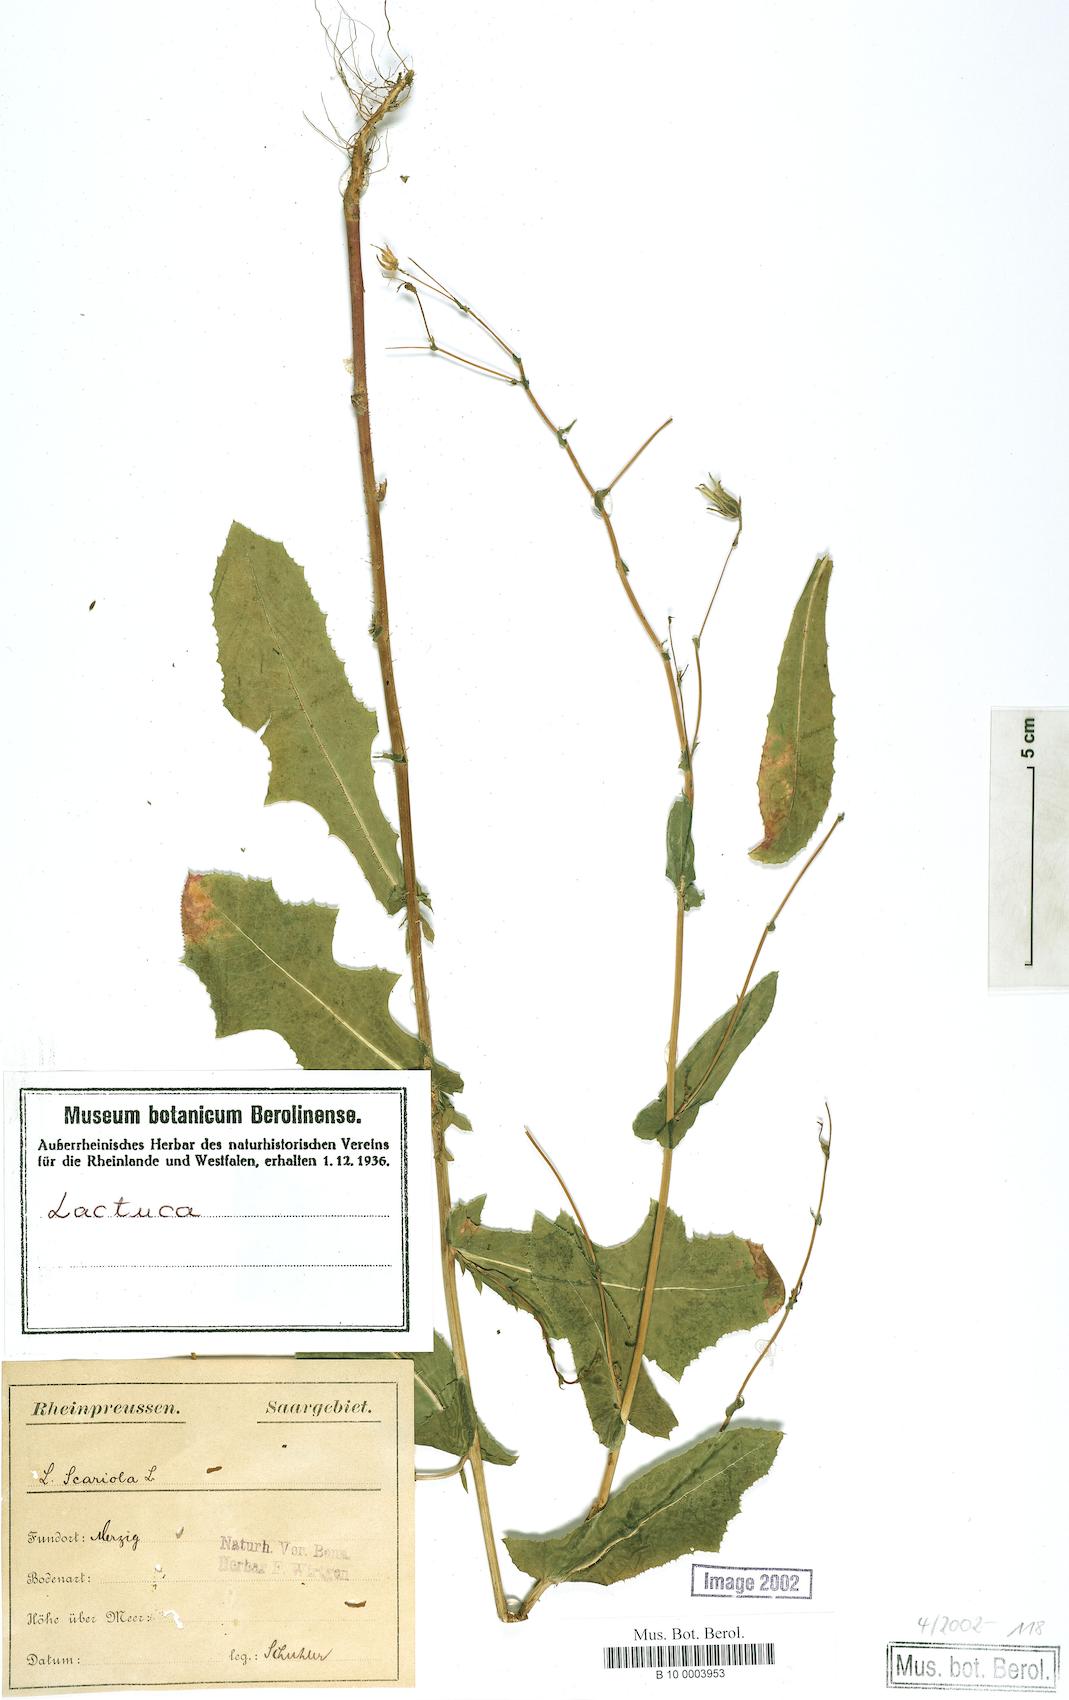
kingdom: Plantae
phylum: Tracheophyta
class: Magnoliopsida
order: Asterales
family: Asteraceae
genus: Lactuca
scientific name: Lactuca serriola
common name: Prickly lettuce
